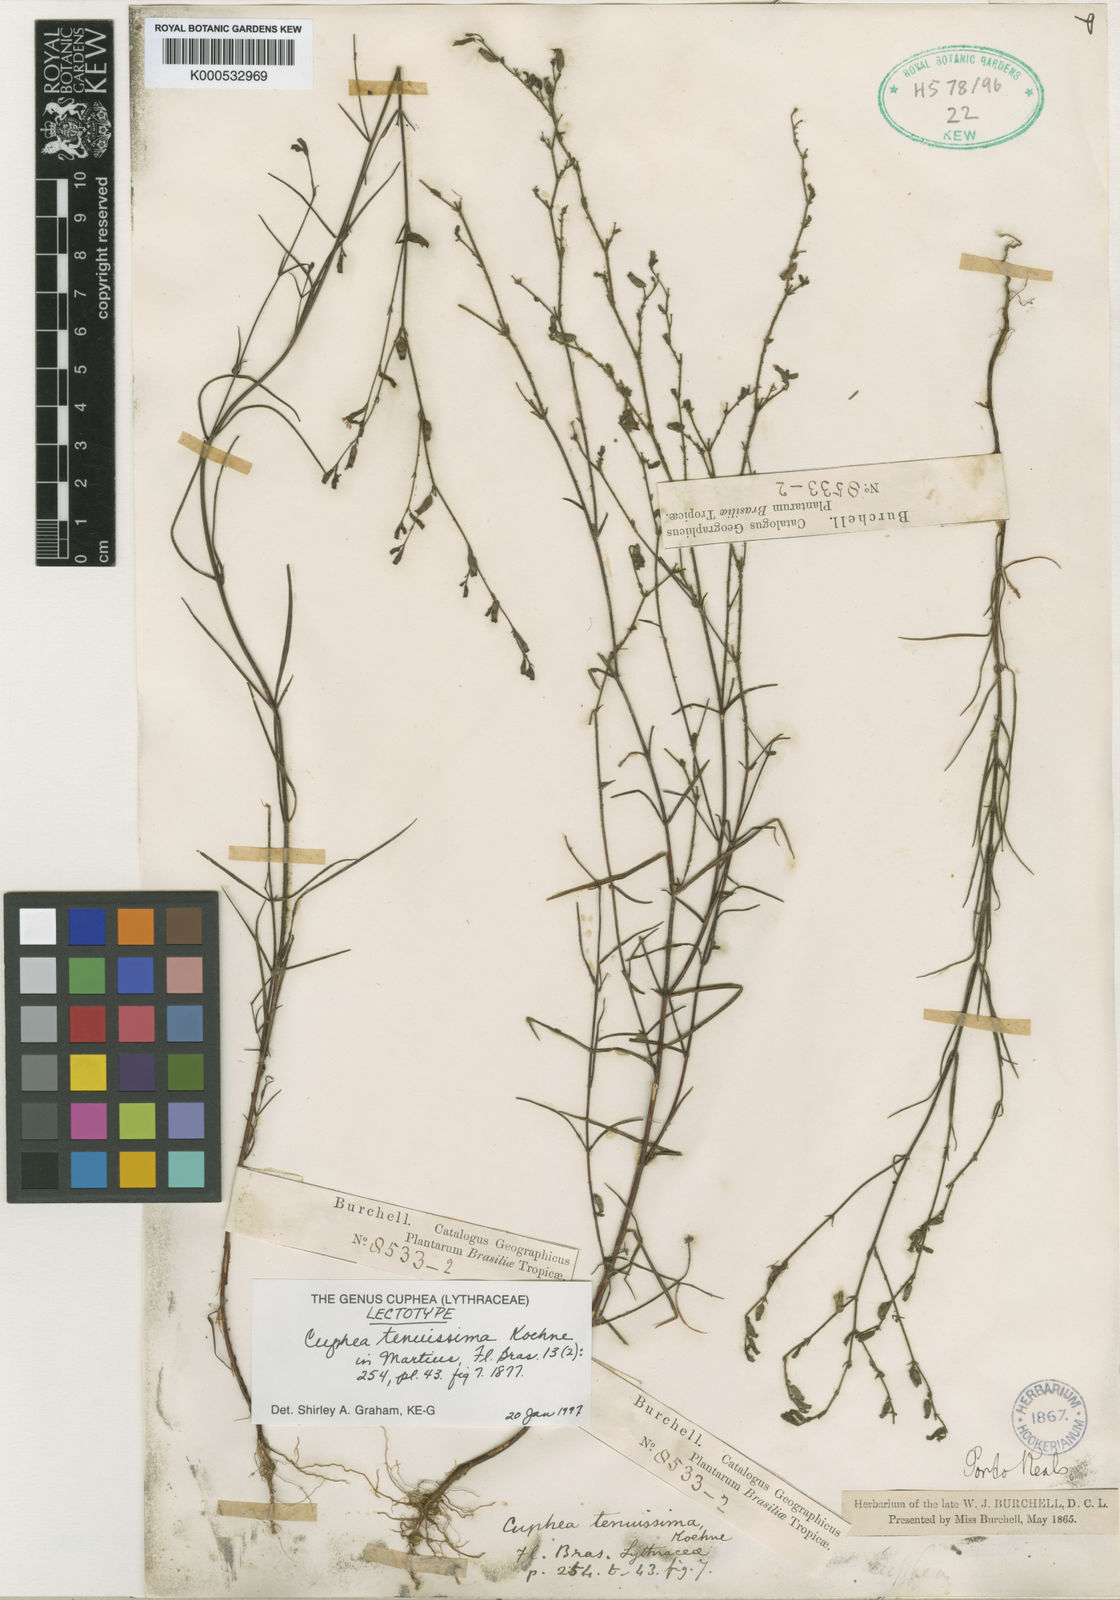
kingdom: Plantae
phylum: Tracheophyta
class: Magnoliopsida
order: Myrtales
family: Lythraceae
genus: Cuphea
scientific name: Cuphea tenuissima
